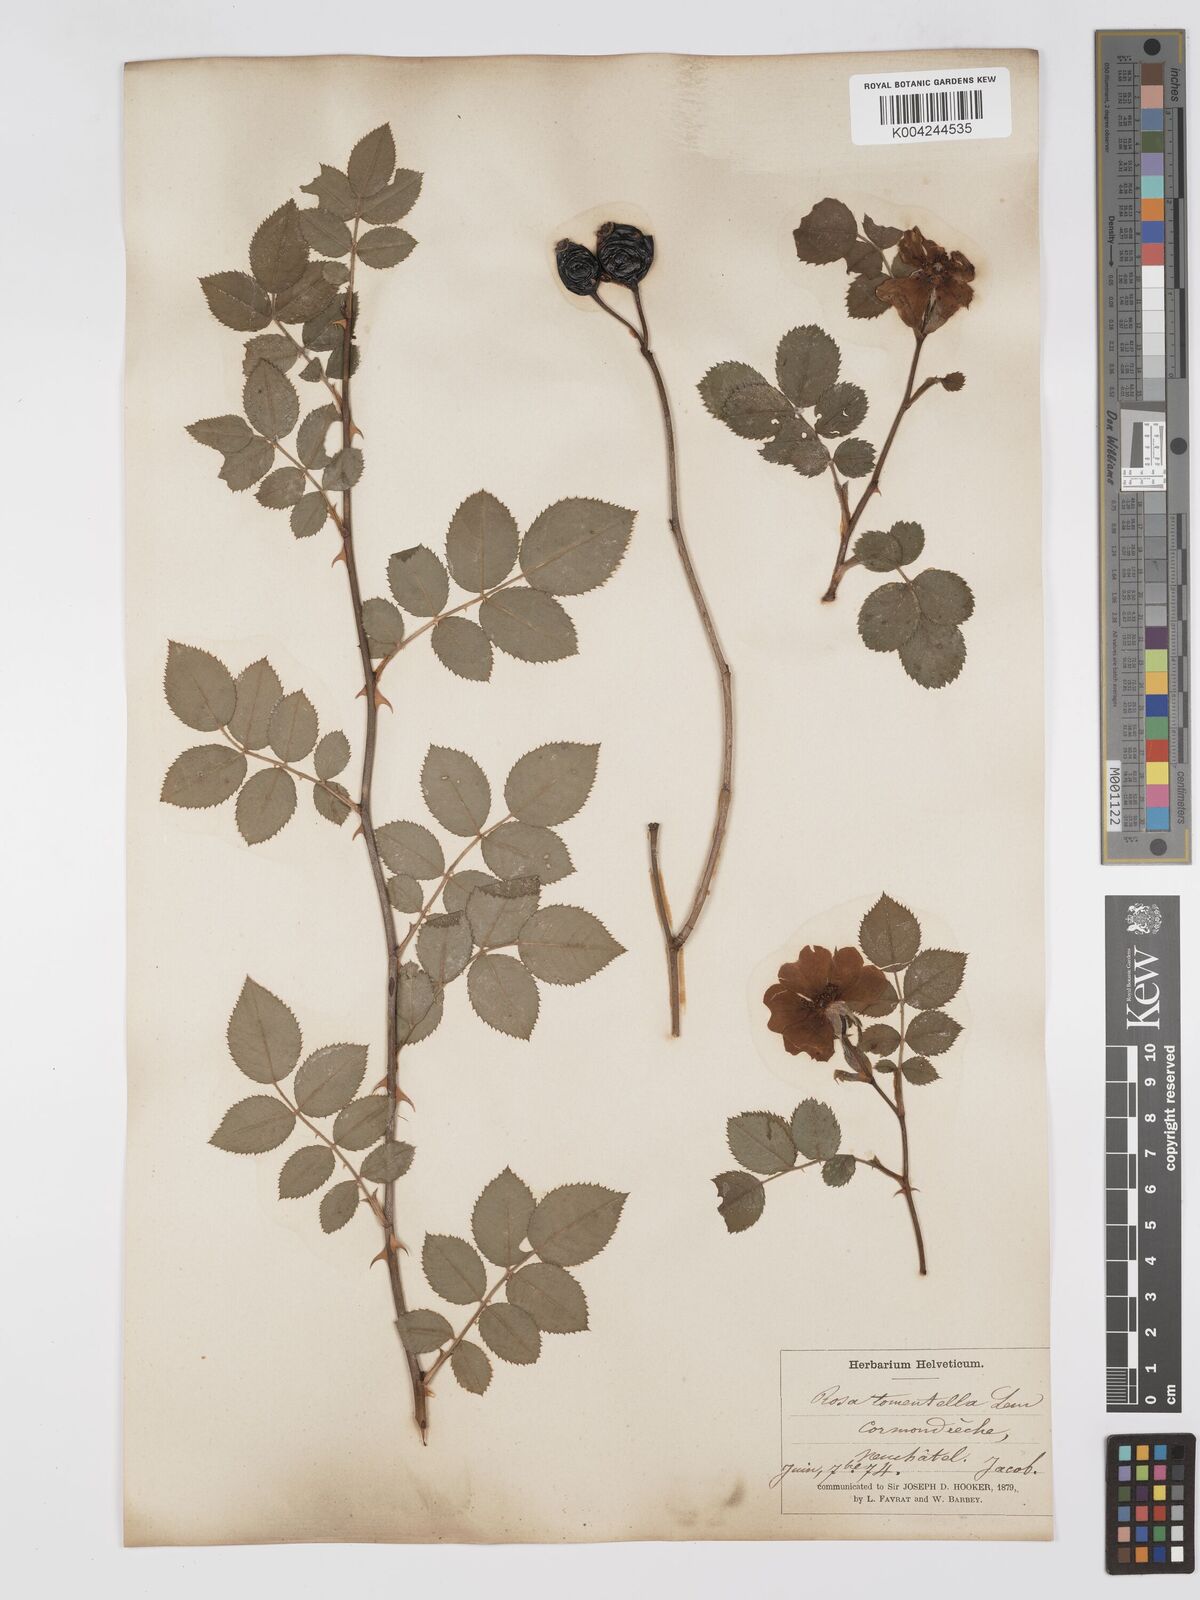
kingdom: Plantae
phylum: Tracheophyta
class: Magnoliopsida
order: Rosales
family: Rosaceae
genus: Rosa
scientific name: Rosa
